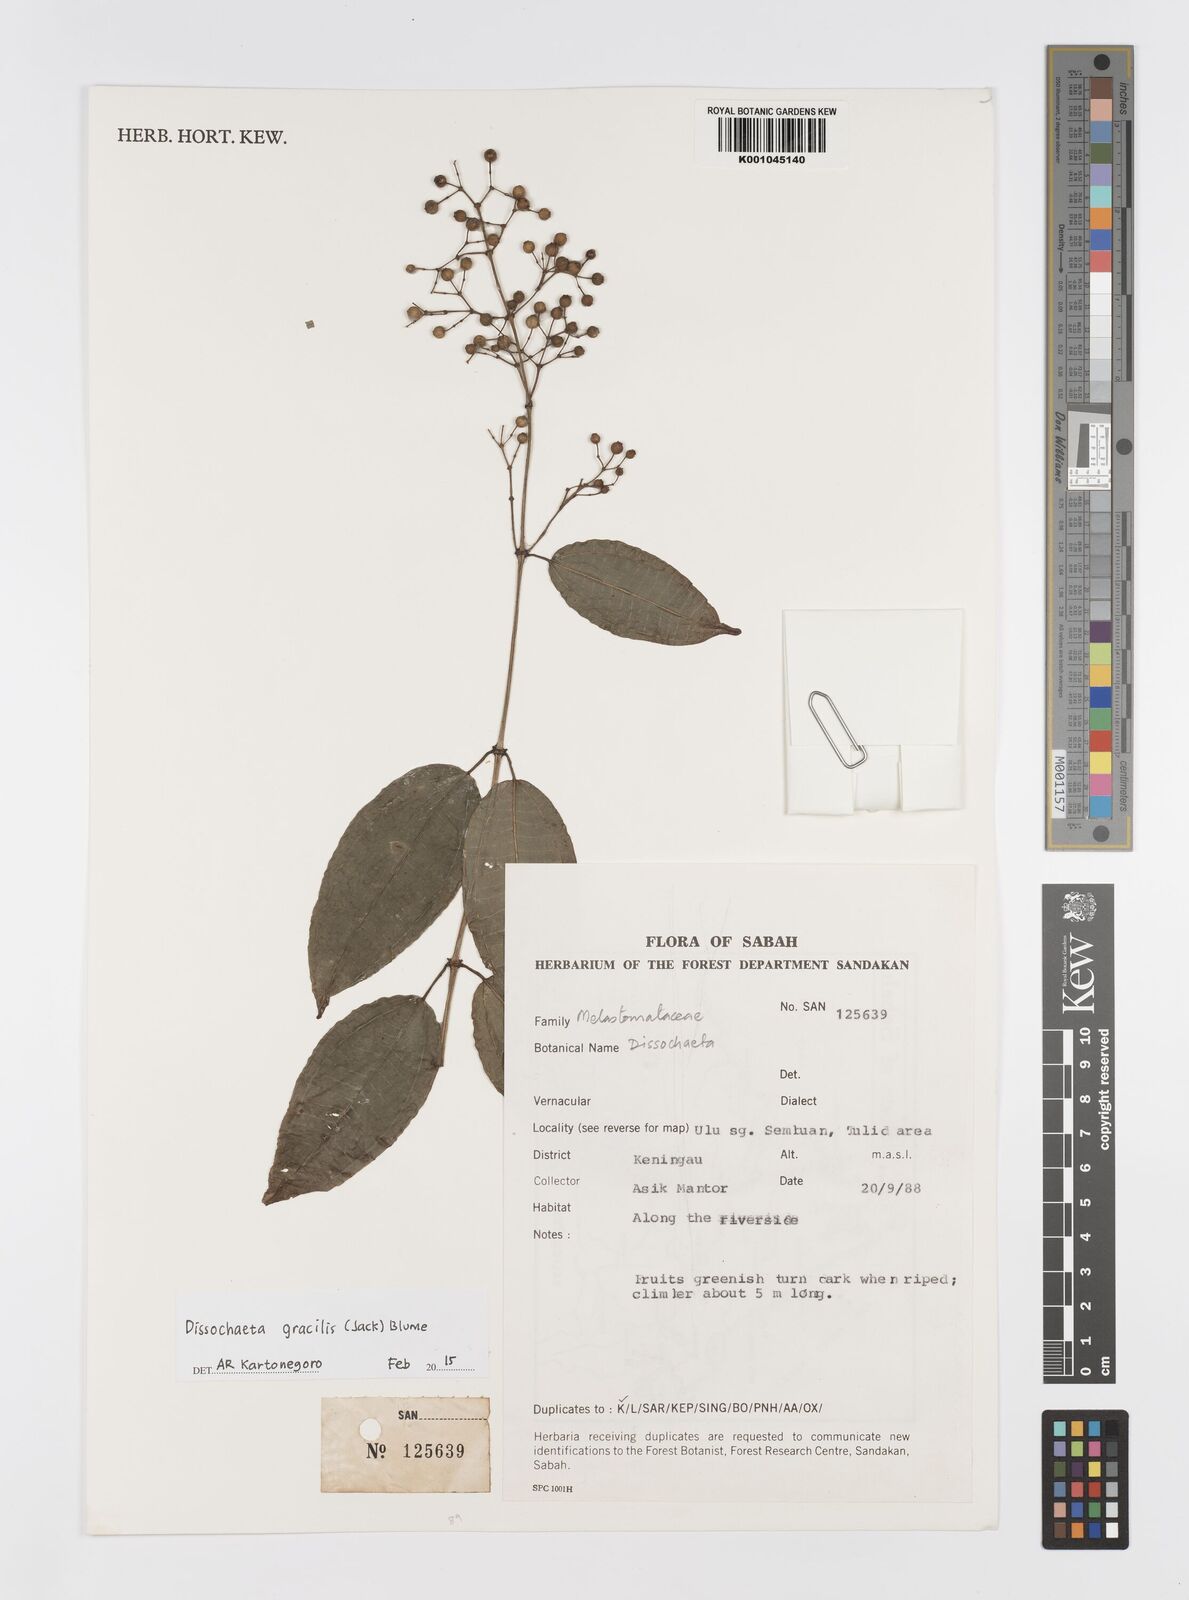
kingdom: Plantae
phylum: Tracheophyta
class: Magnoliopsida
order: Myrtales
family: Melastomataceae
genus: Dissochaeta
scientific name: Dissochaeta gracilis
